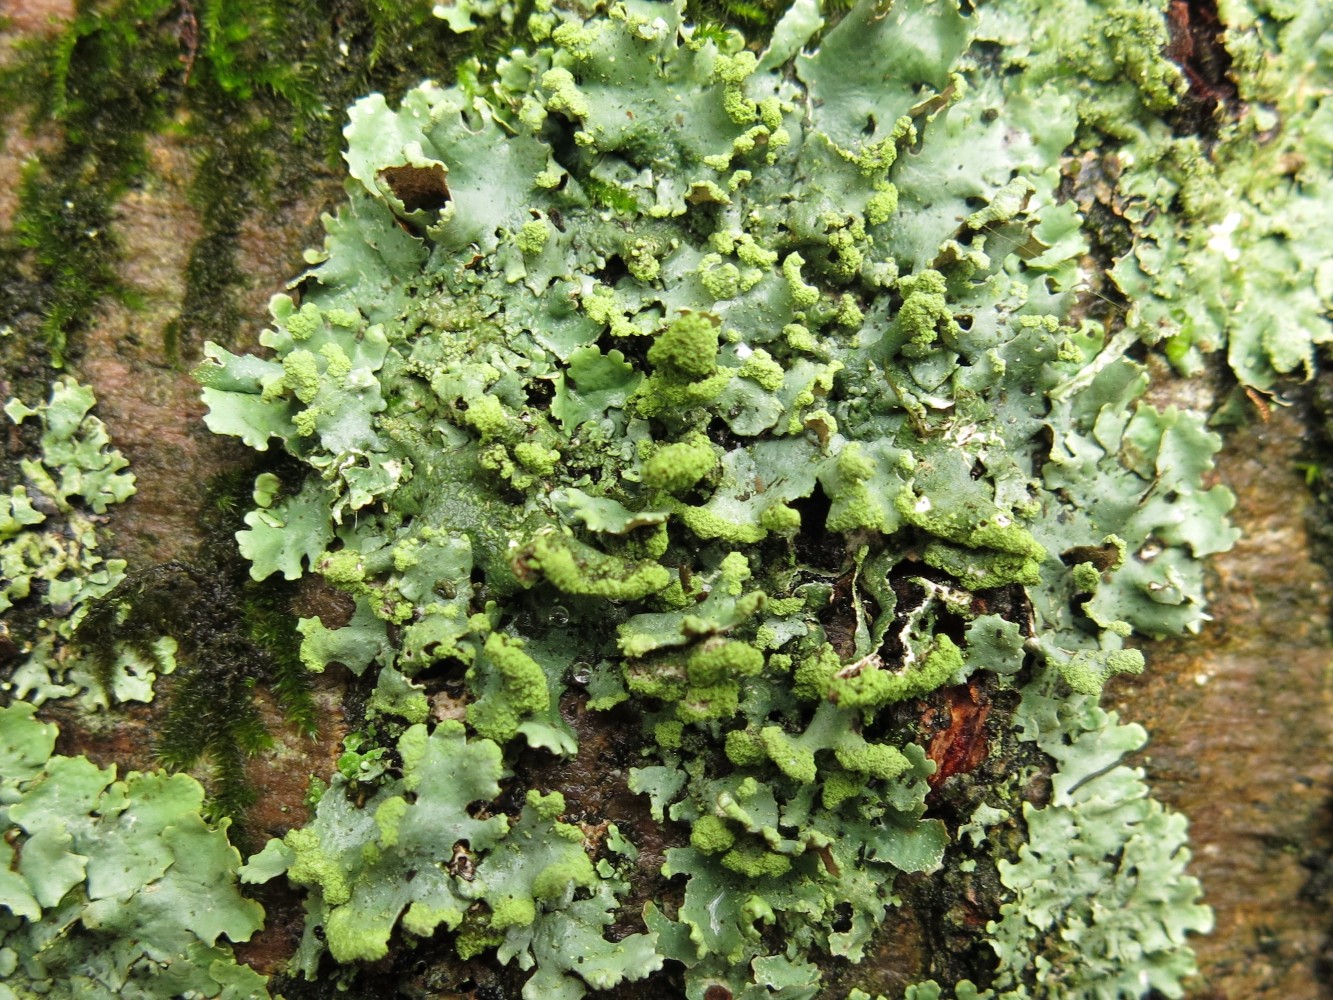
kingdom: Fungi
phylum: Ascomycota
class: Lecanoromycetes
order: Lecanorales
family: Parmeliaceae
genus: Hypotrachyna
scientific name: Hypotrachyna revoluta
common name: bleggrå skållav
